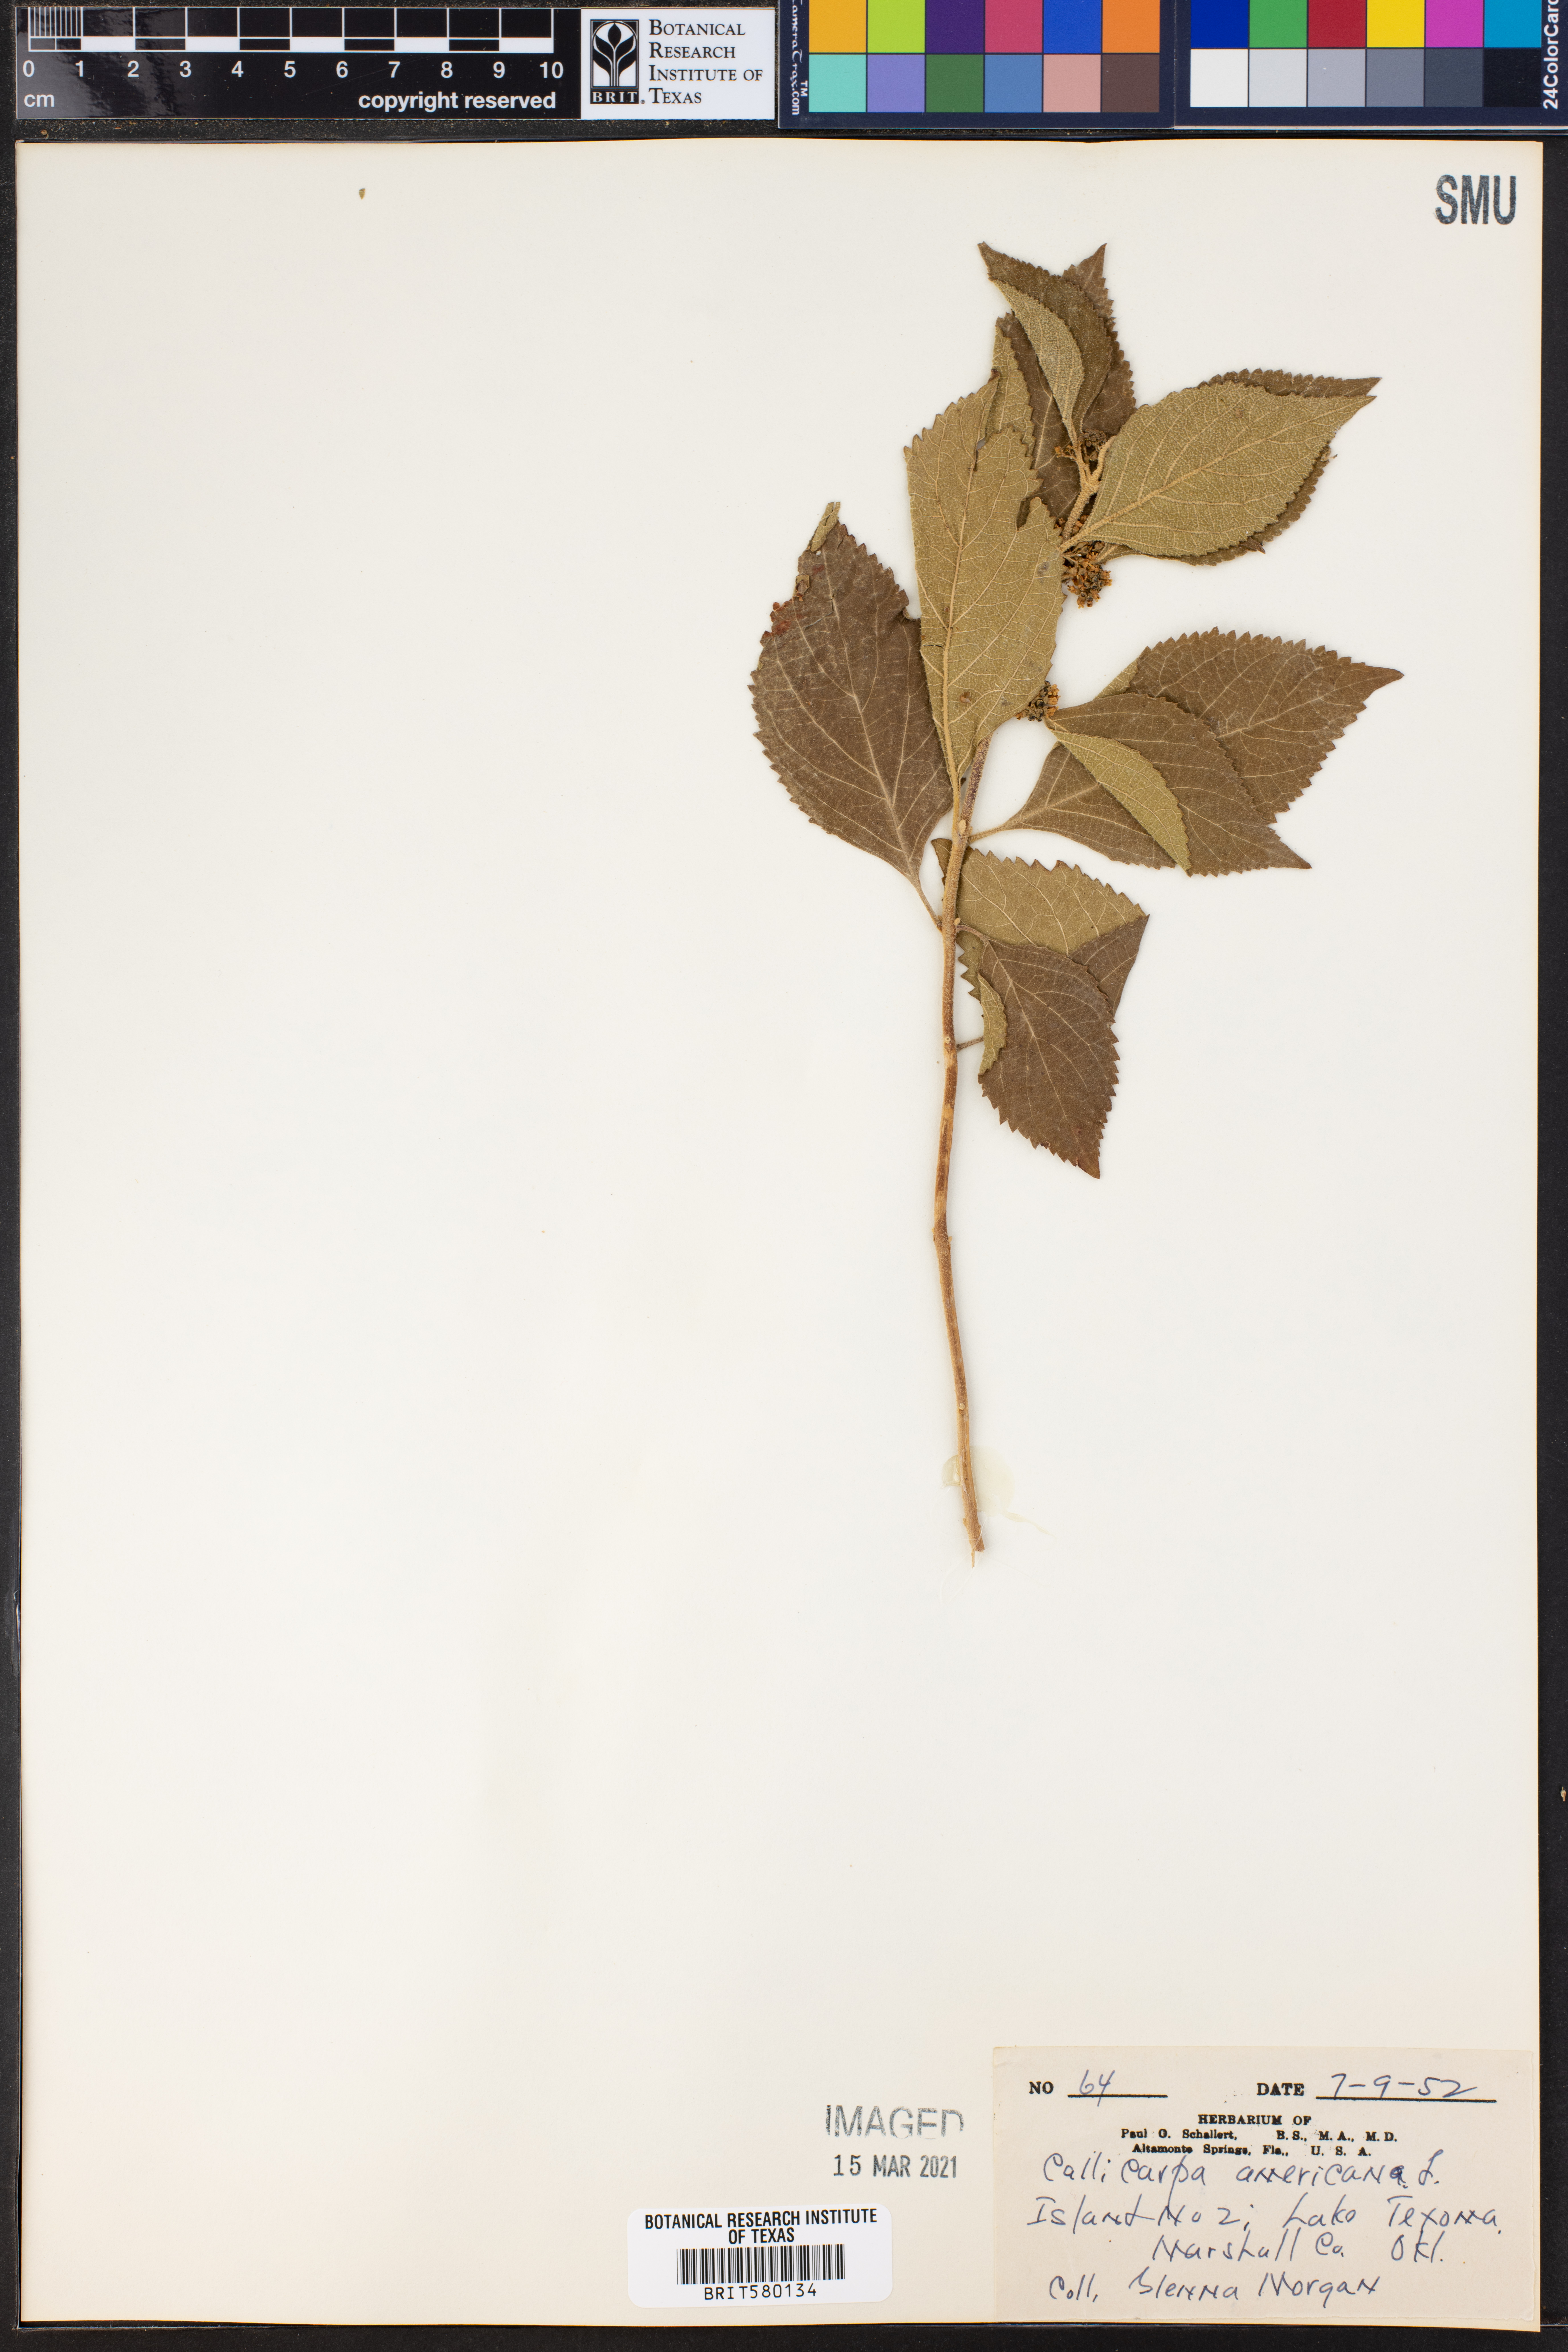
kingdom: Plantae
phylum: Tracheophyta
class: Magnoliopsida
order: Lamiales
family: Lamiaceae
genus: Callicarpa
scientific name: Callicarpa americana
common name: American beautyberry
